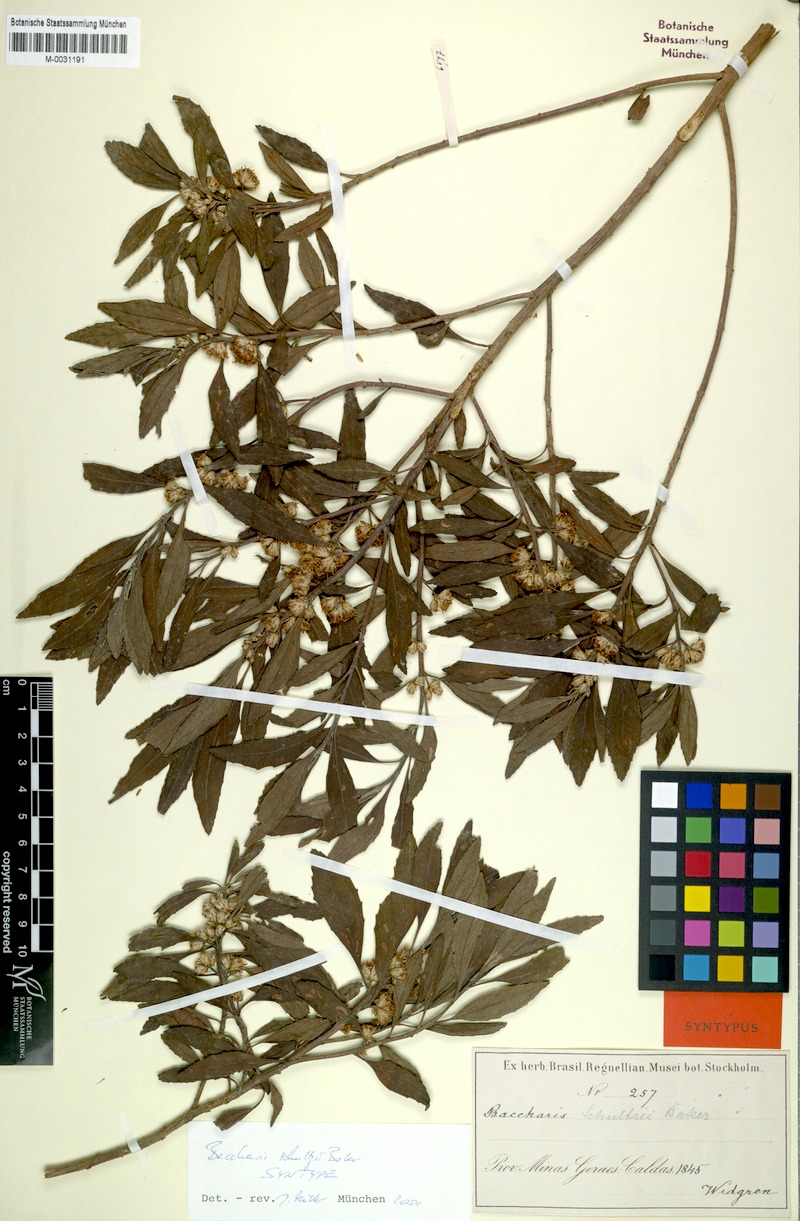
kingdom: Plantae
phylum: Tracheophyta
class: Magnoliopsida
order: Asterales
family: Asteraceae
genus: Baccharis
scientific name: Baccharis lateralis
